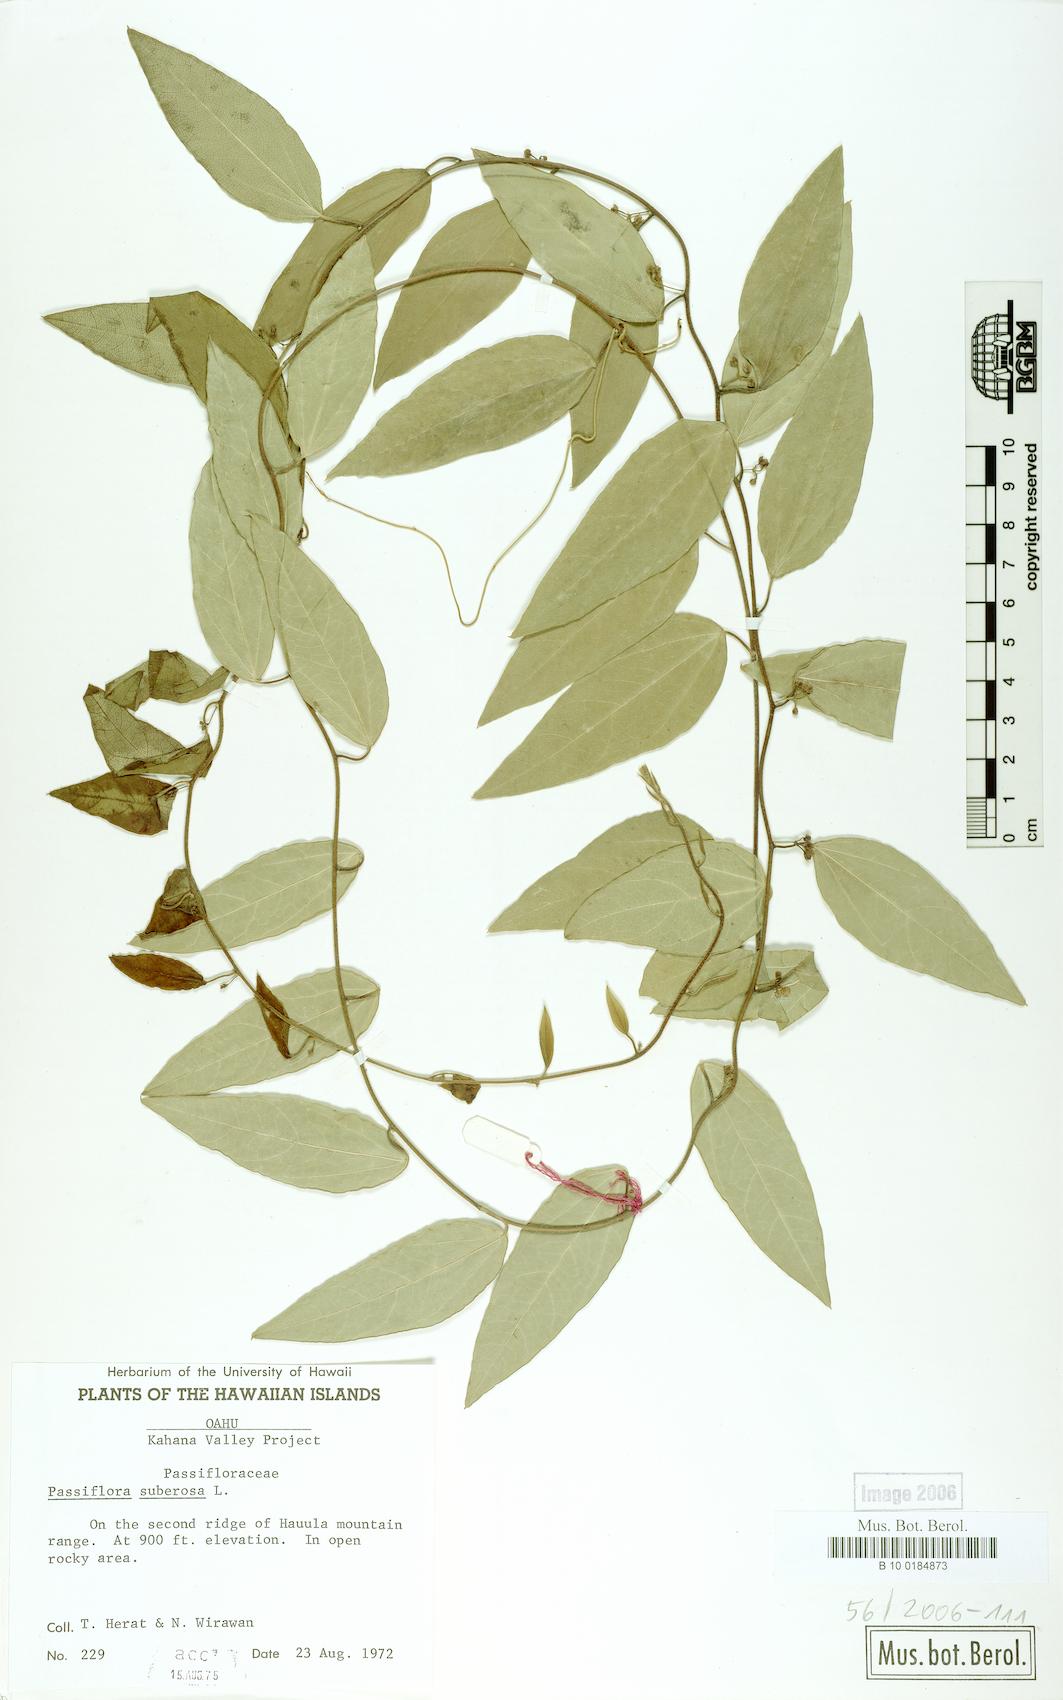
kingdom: Plantae
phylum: Tracheophyta
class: Magnoliopsida
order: Malpighiales
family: Passifloraceae
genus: Passiflora
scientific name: Passiflora suberosa
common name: Wild passionfruit
